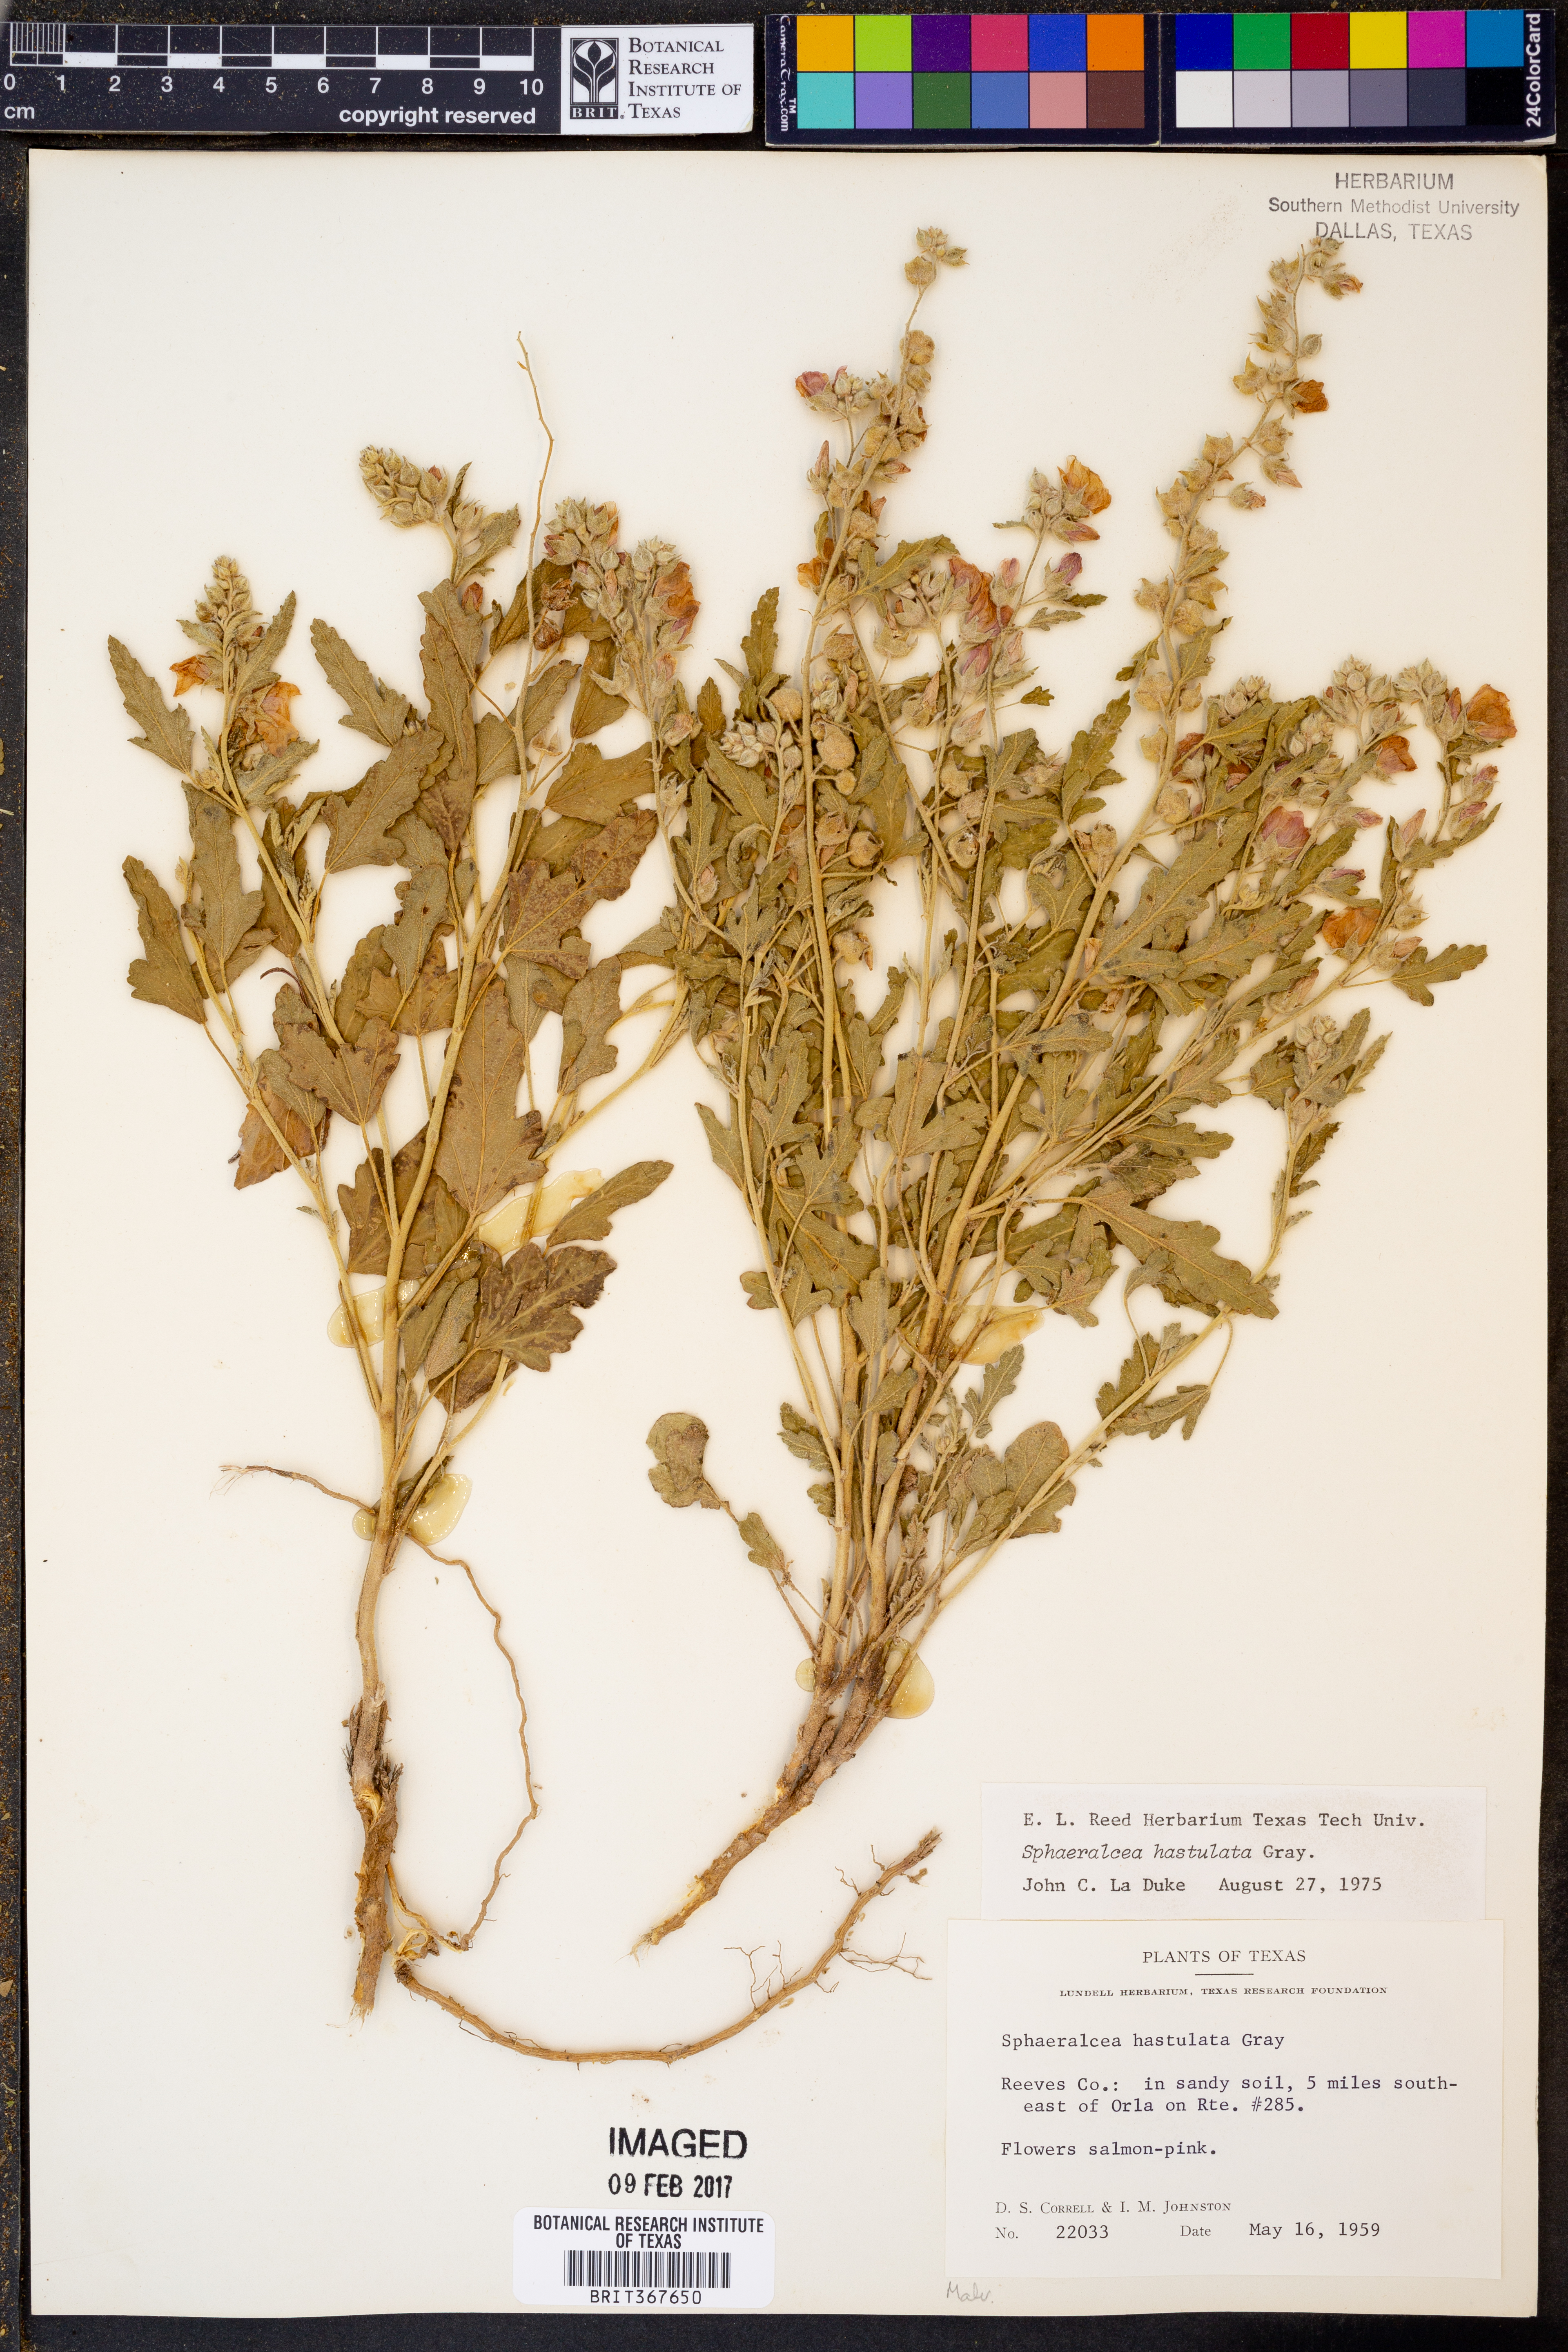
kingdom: Plantae
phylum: Tracheophyta
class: Magnoliopsida
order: Malvales
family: Malvaceae
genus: Sphaeralcea
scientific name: Sphaeralcea hastulata
